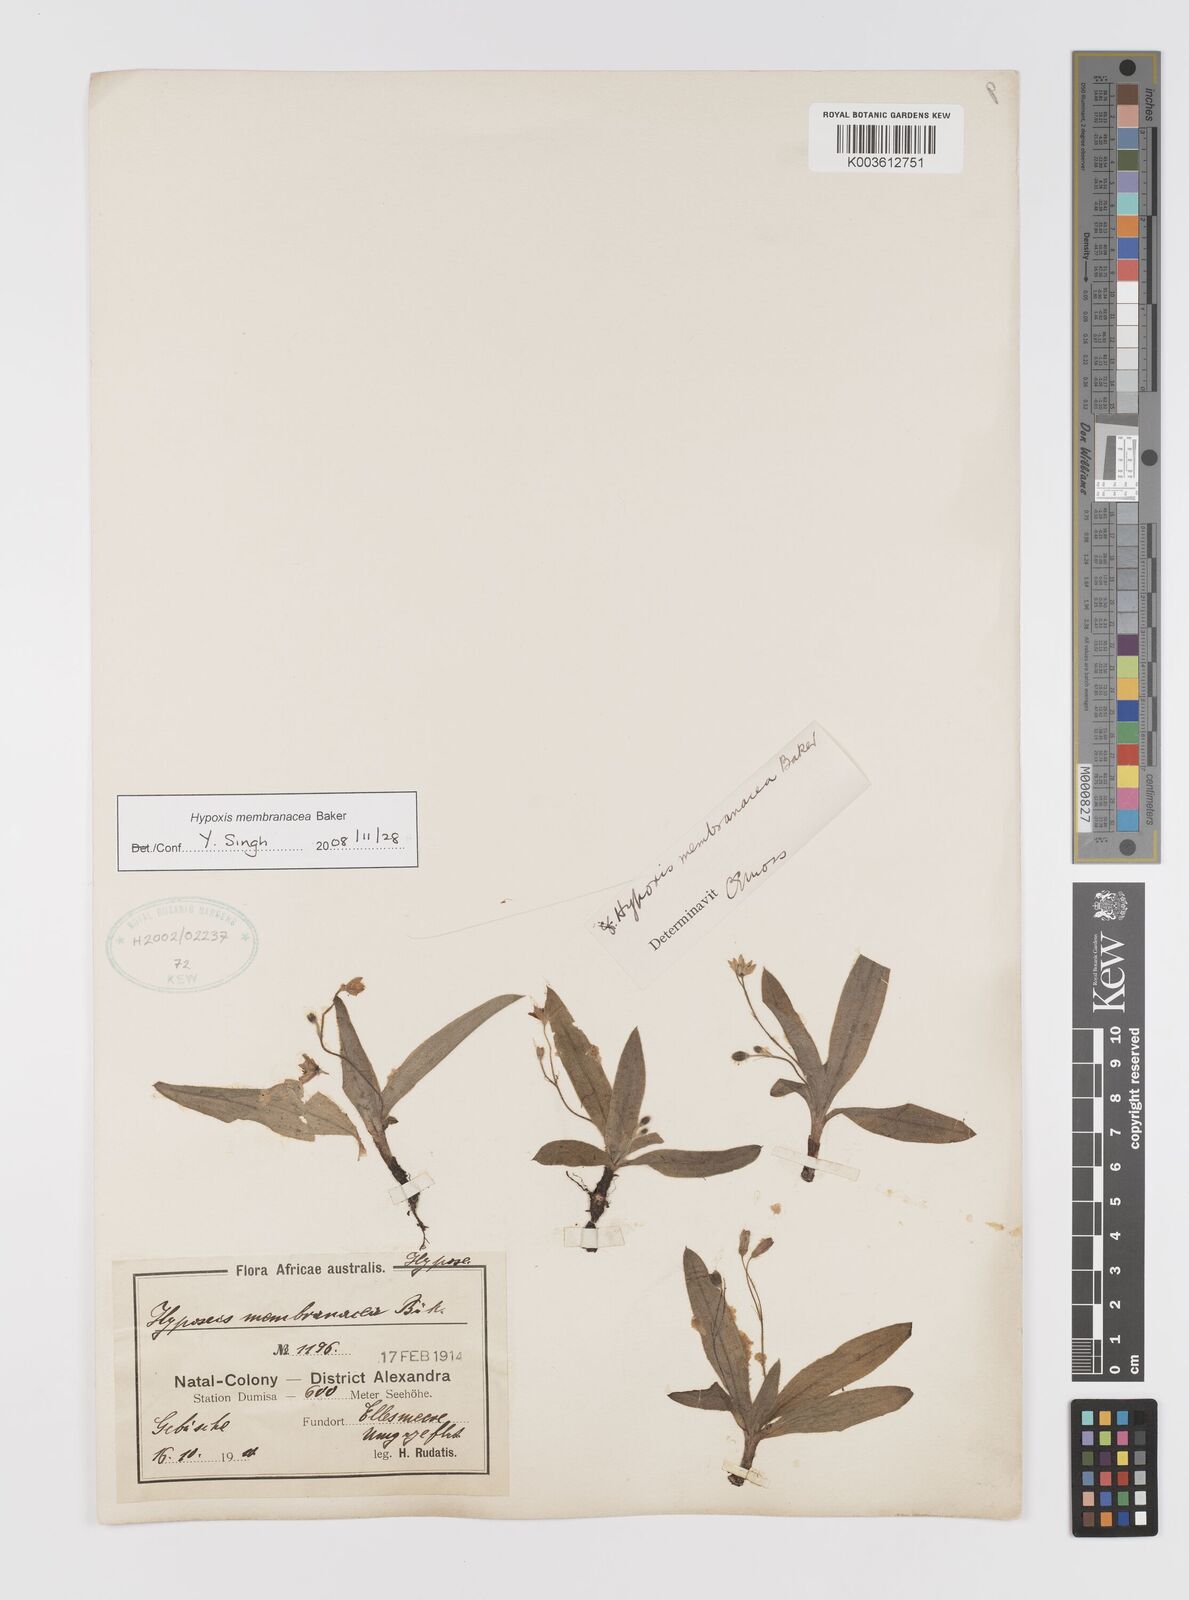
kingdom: Plantae
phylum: Tracheophyta
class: Liliopsida
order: Asparagales
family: Hypoxidaceae
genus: Hypoxis
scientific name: Hypoxis membranacea
